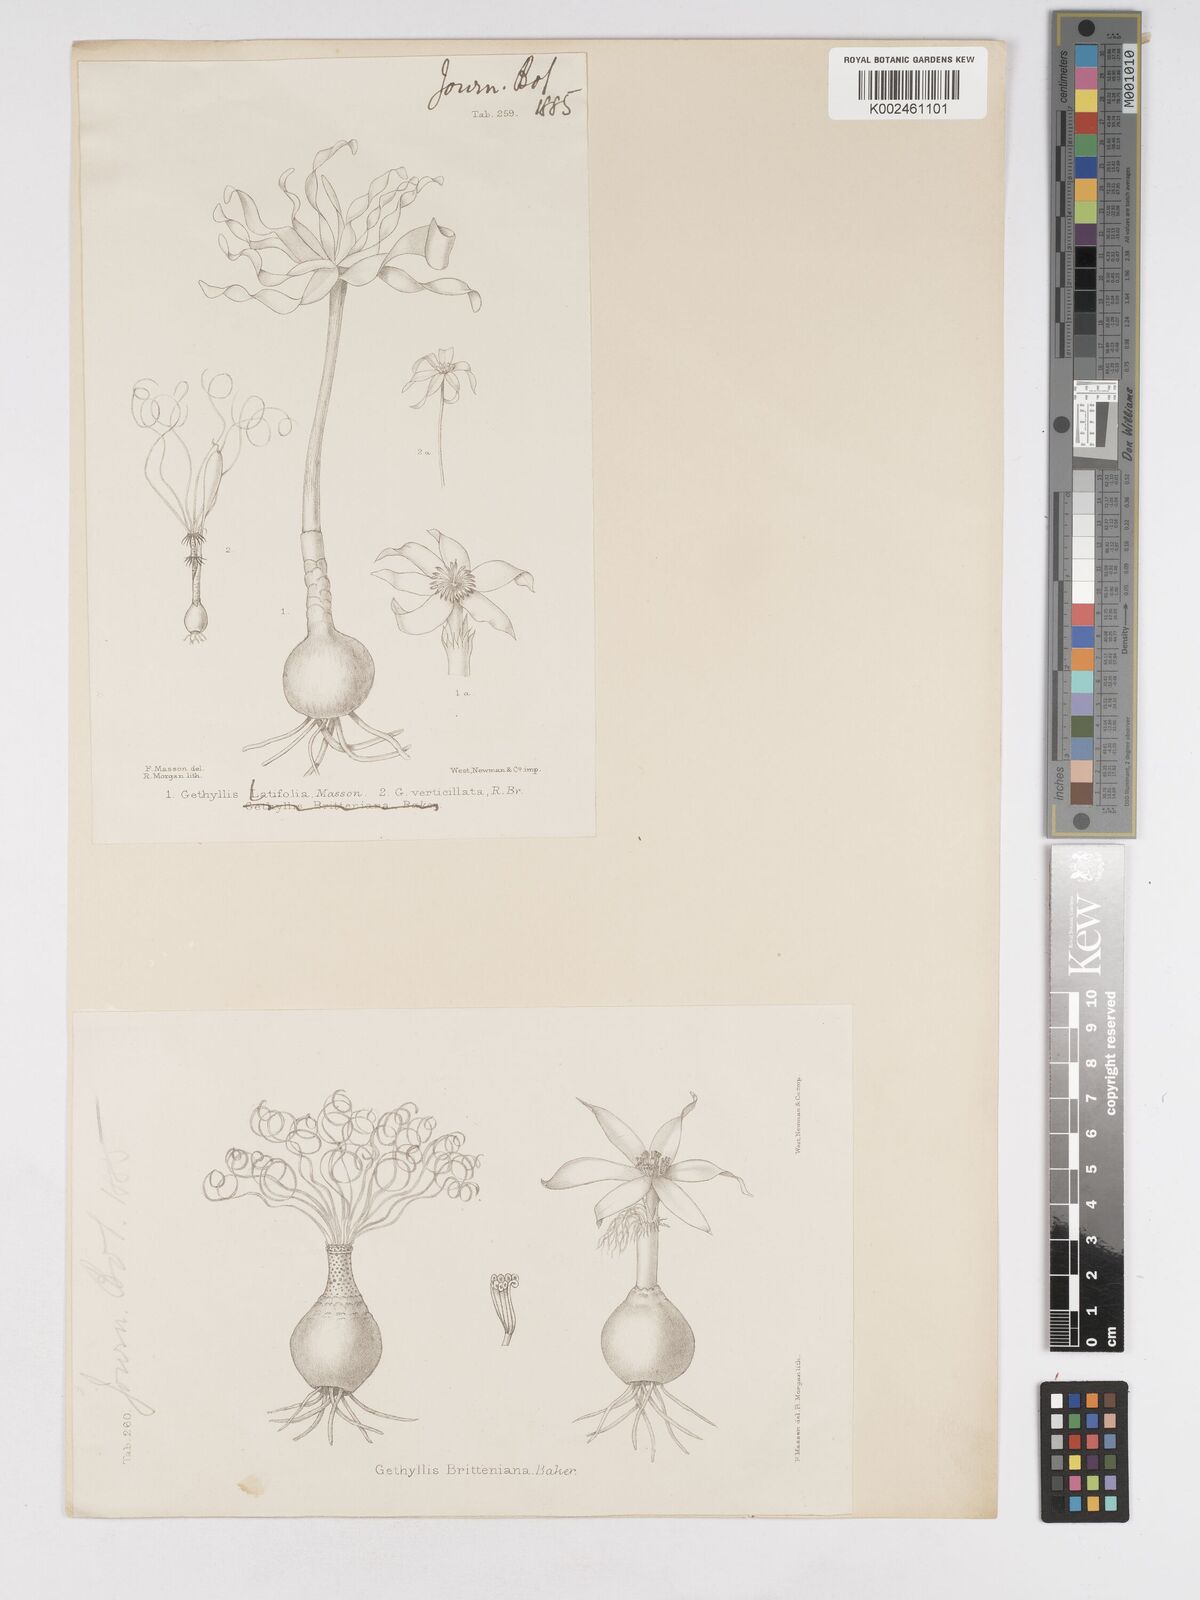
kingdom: Plantae
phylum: Tracheophyta
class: Liliopsida
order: Asparagales
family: Amaryllidaceae
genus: Gethyllis
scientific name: Gethyllis spiralis
